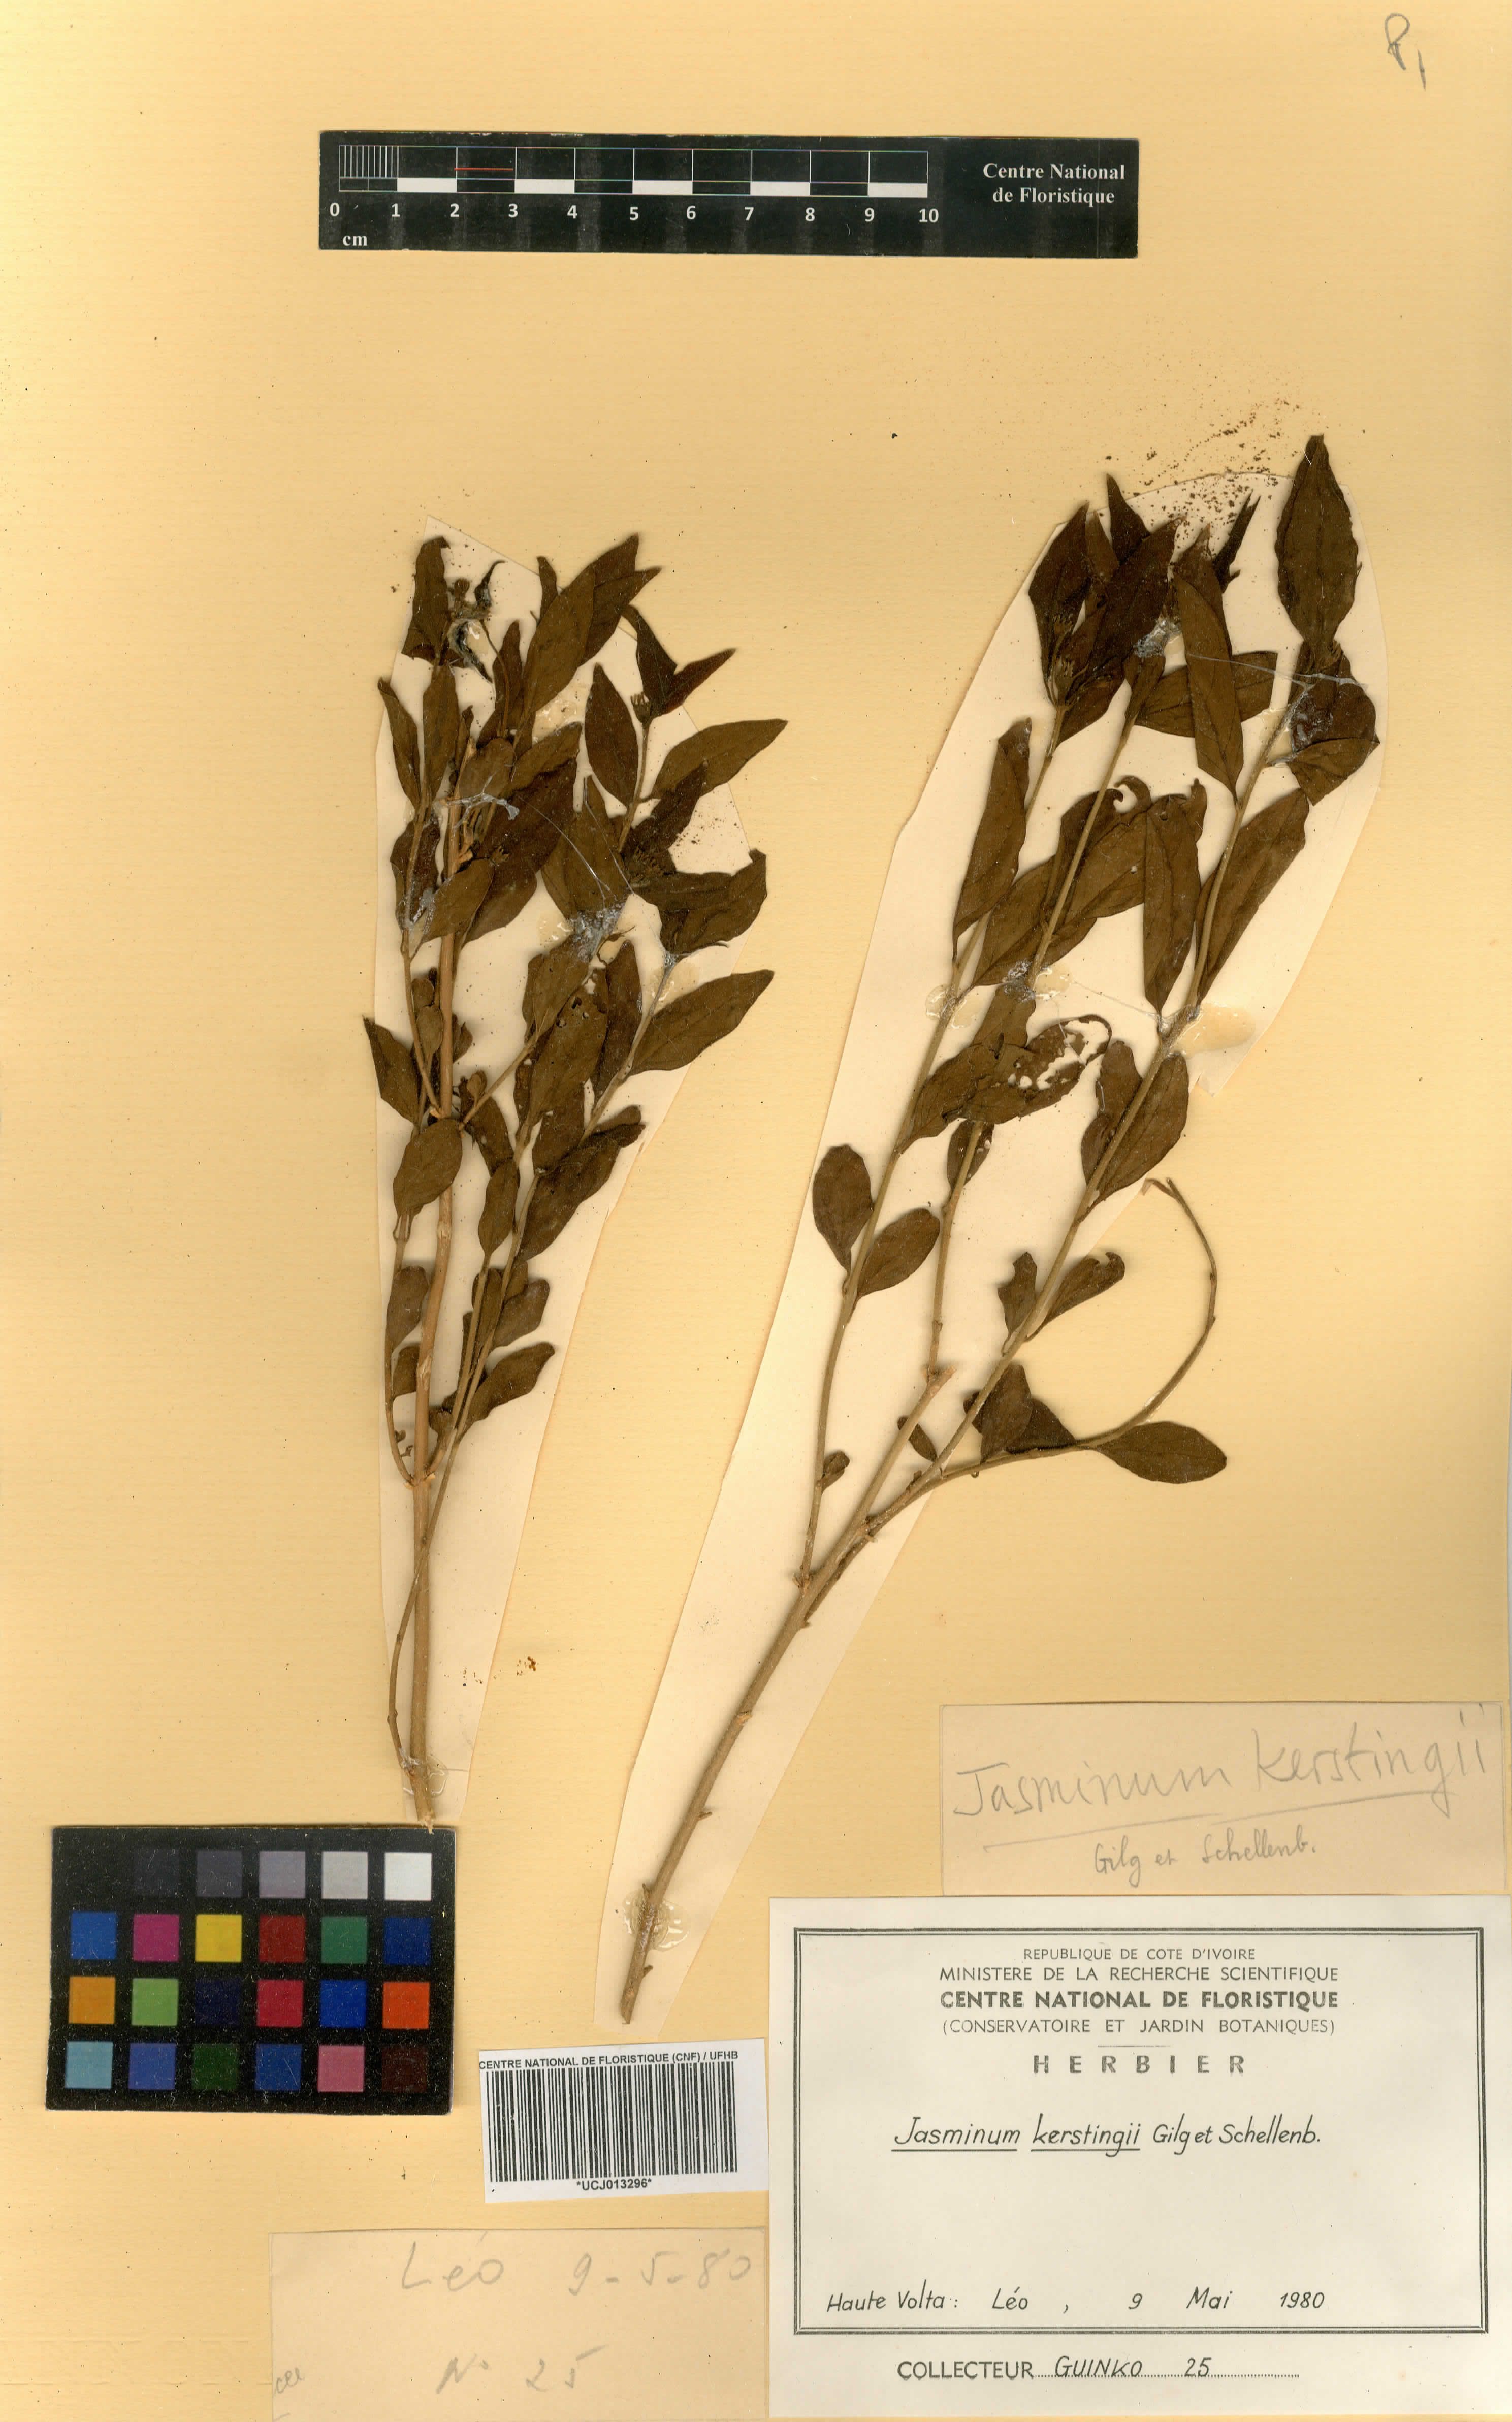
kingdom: Plantae
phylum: Tracheophyta
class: Magnoliopsida
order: Lamiales
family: Oleaceae
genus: Jasminum
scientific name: Jasminum kerstingii
